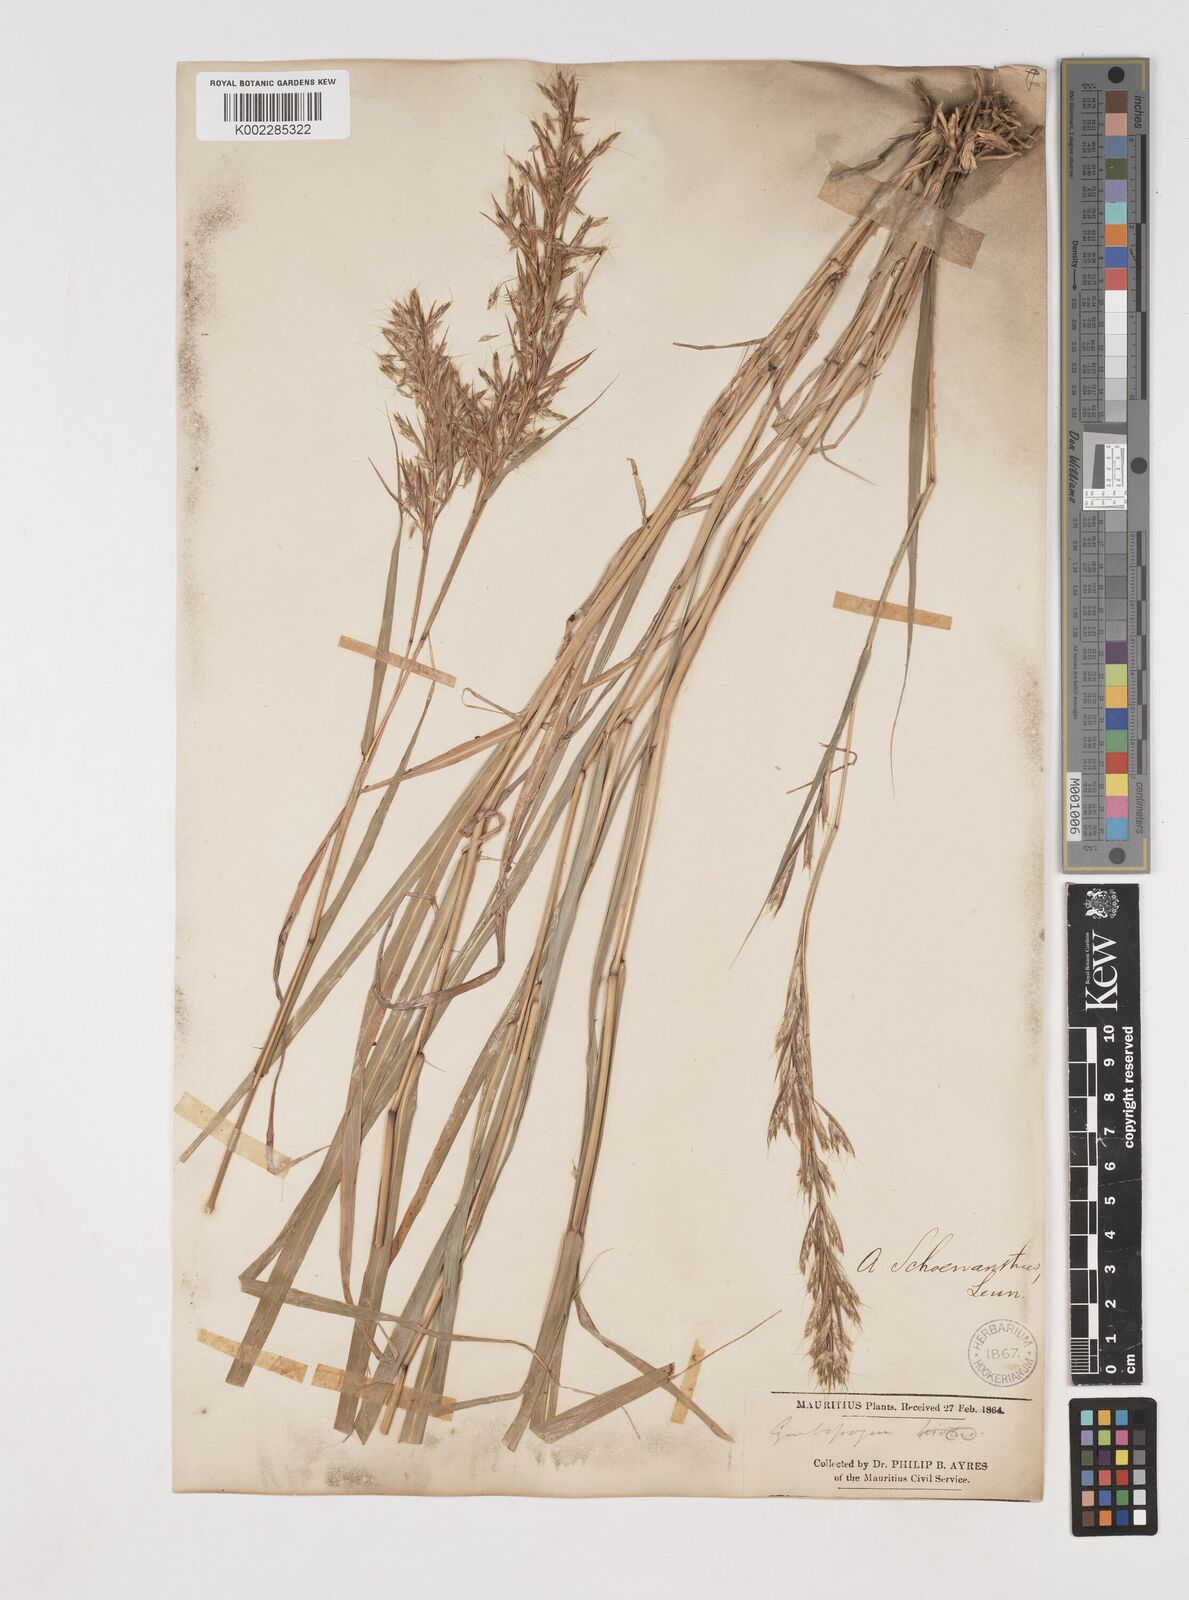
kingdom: Plantae
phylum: Tracheophyta
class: Liliopsida
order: Poales
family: Poaceae
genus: Cymbopogon
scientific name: Cymbopogon pruinosus
